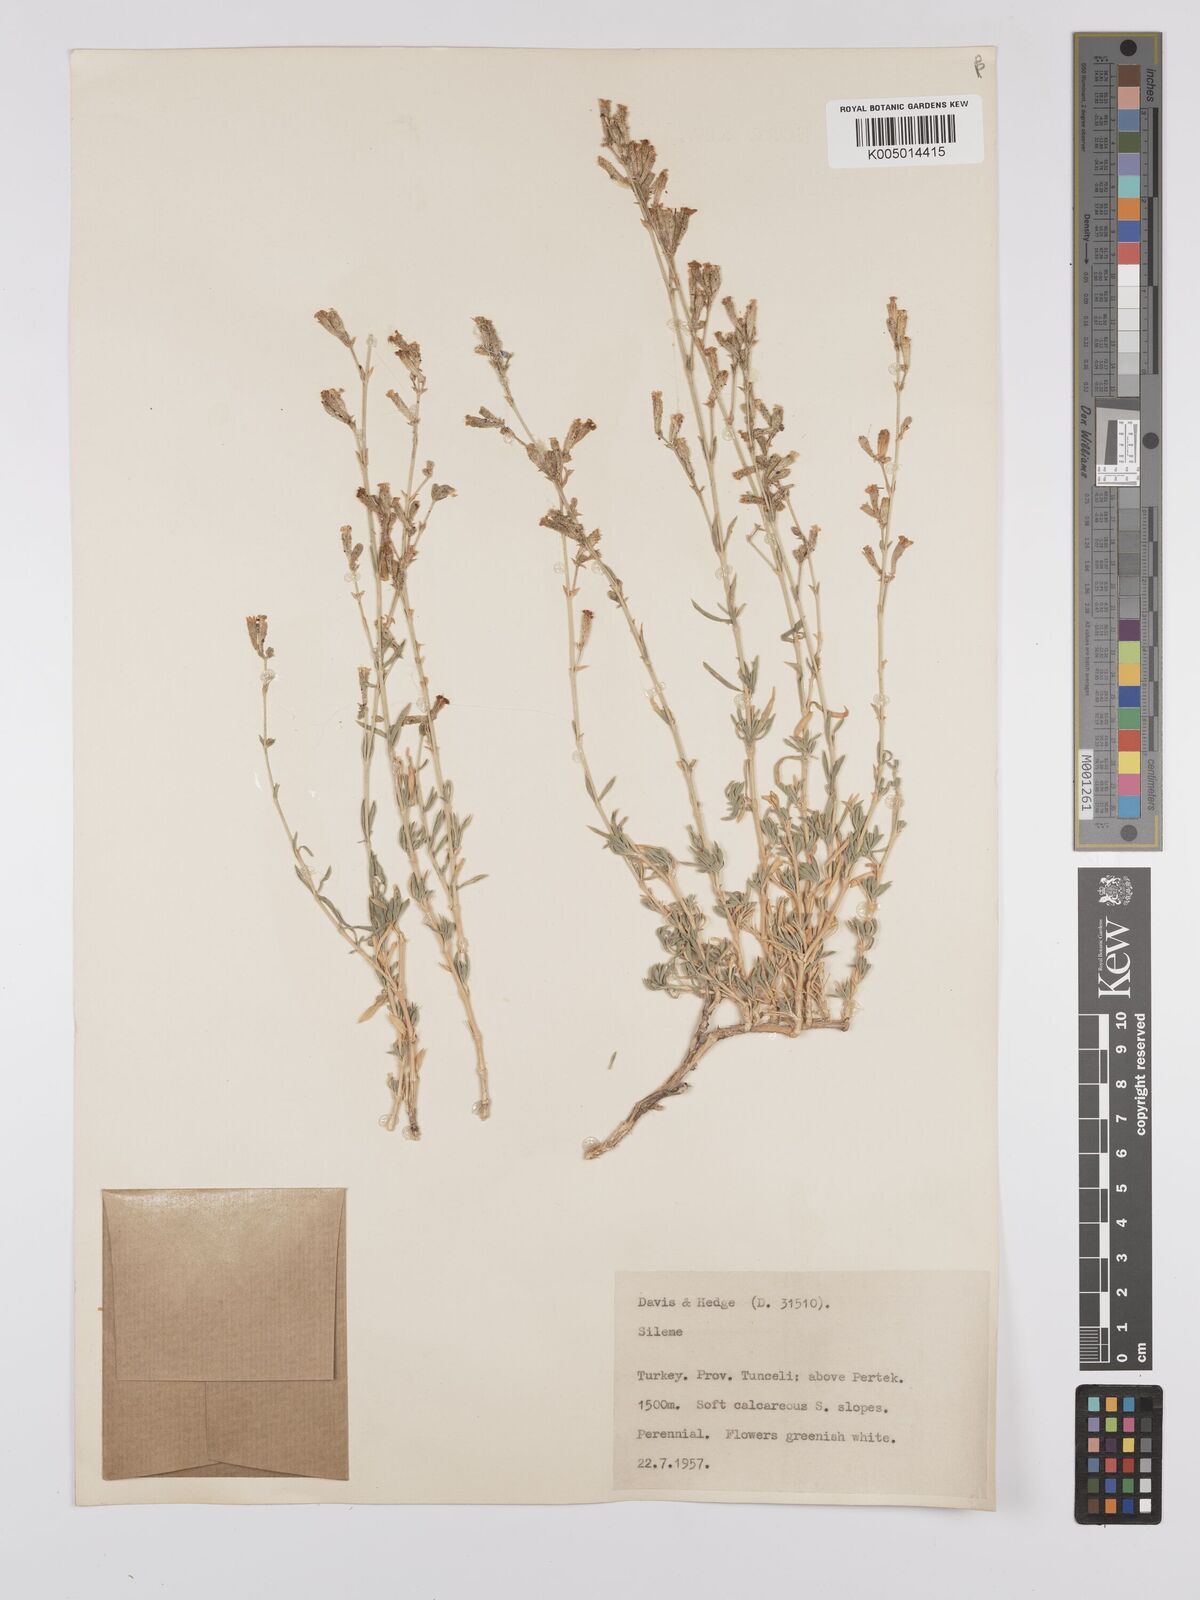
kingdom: Plantae
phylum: Tracheophyta
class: Magnoliopsida
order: Caryophyllales
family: Caryophyllaceae
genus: Silene
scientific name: Silene
